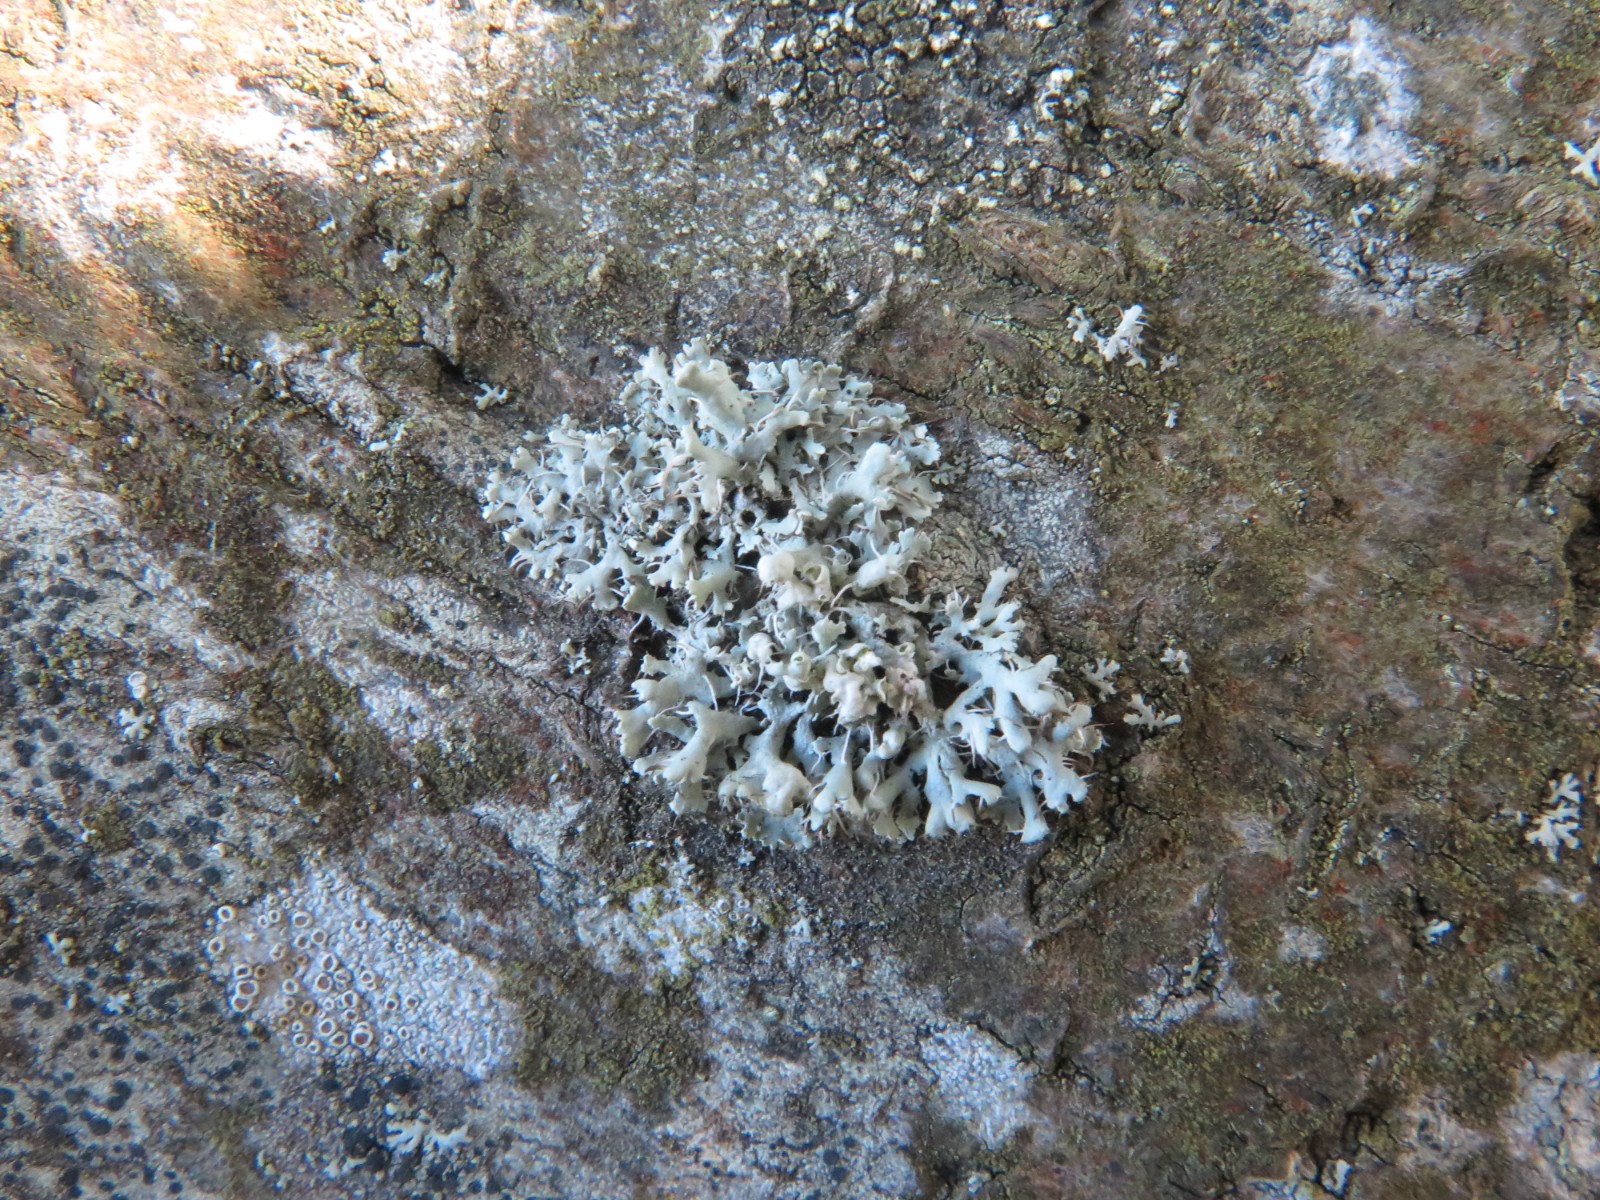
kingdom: Fungi
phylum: Ascomycota
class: Lecanoromycetes
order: Caliciales
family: Physciaceae
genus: Physcia
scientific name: Physcia tenella
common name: spæd rosetlav
